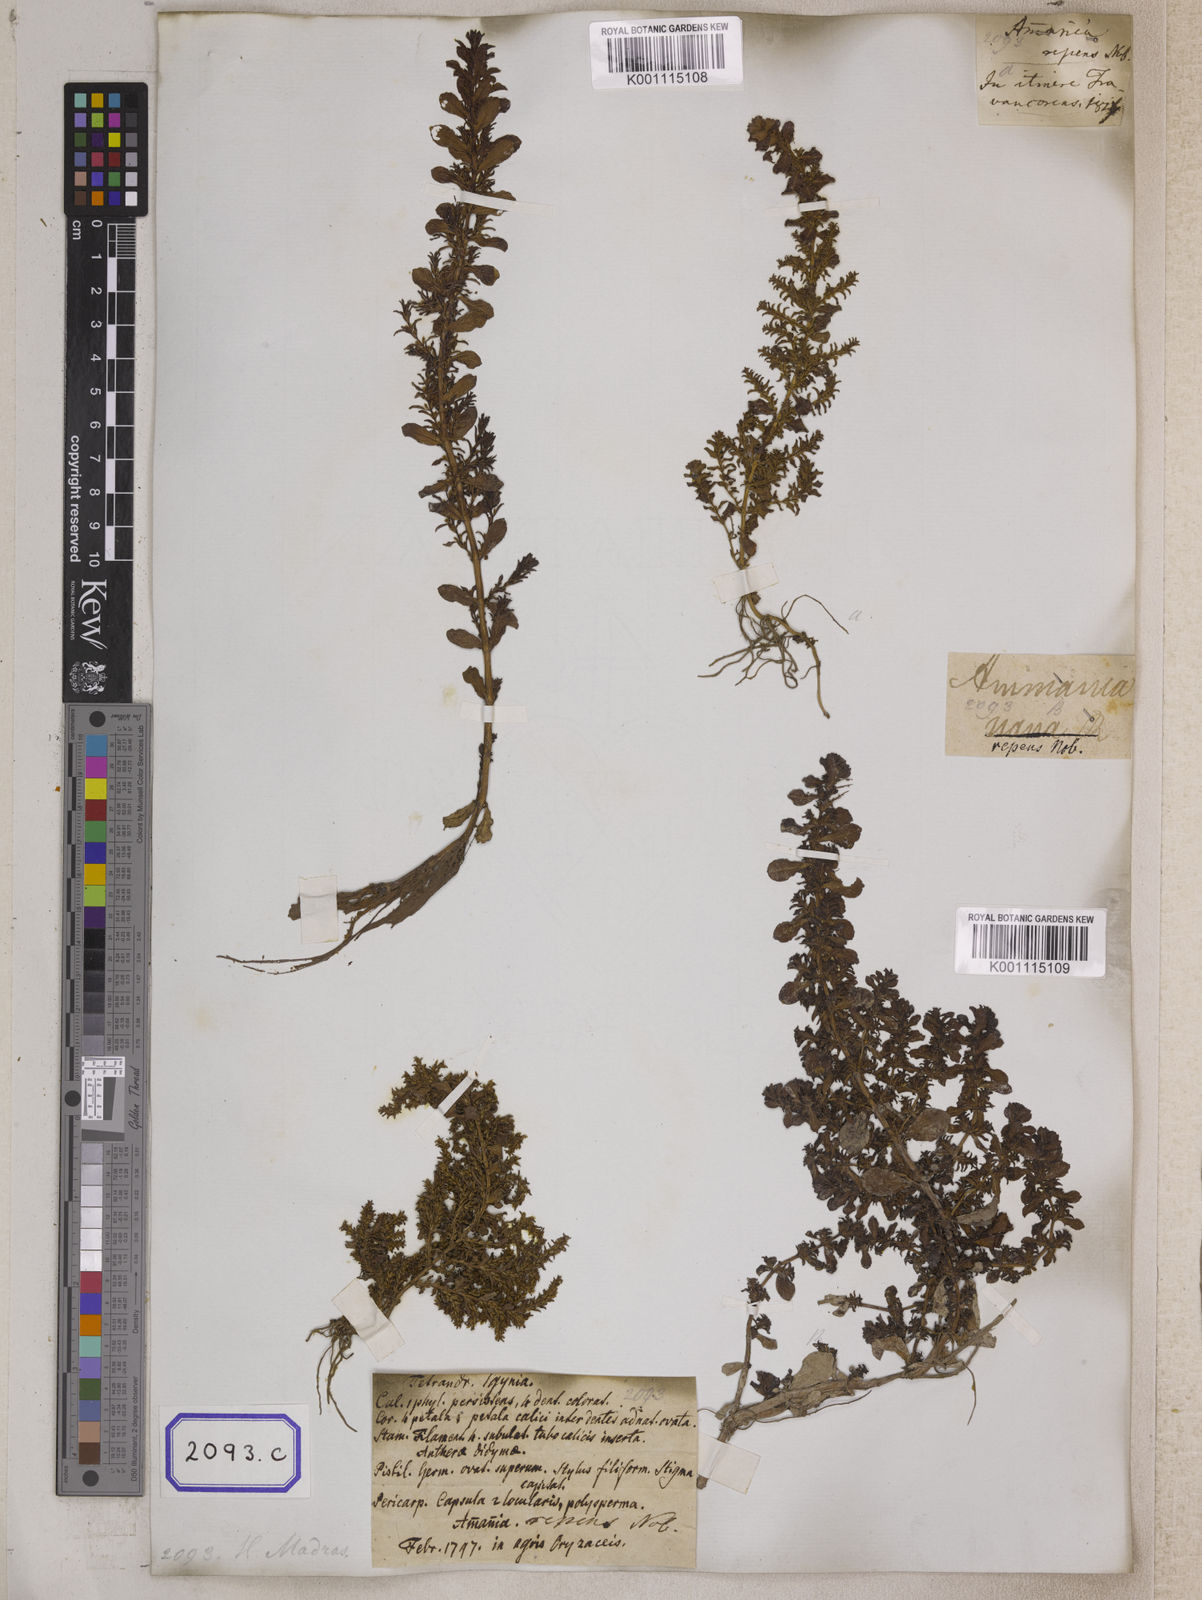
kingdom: Plantae
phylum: Tracheophyta
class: Magnoliopsida
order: Myrtales
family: Lythraceae
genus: Rotala
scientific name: Rotala indica
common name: Indian toothcup
